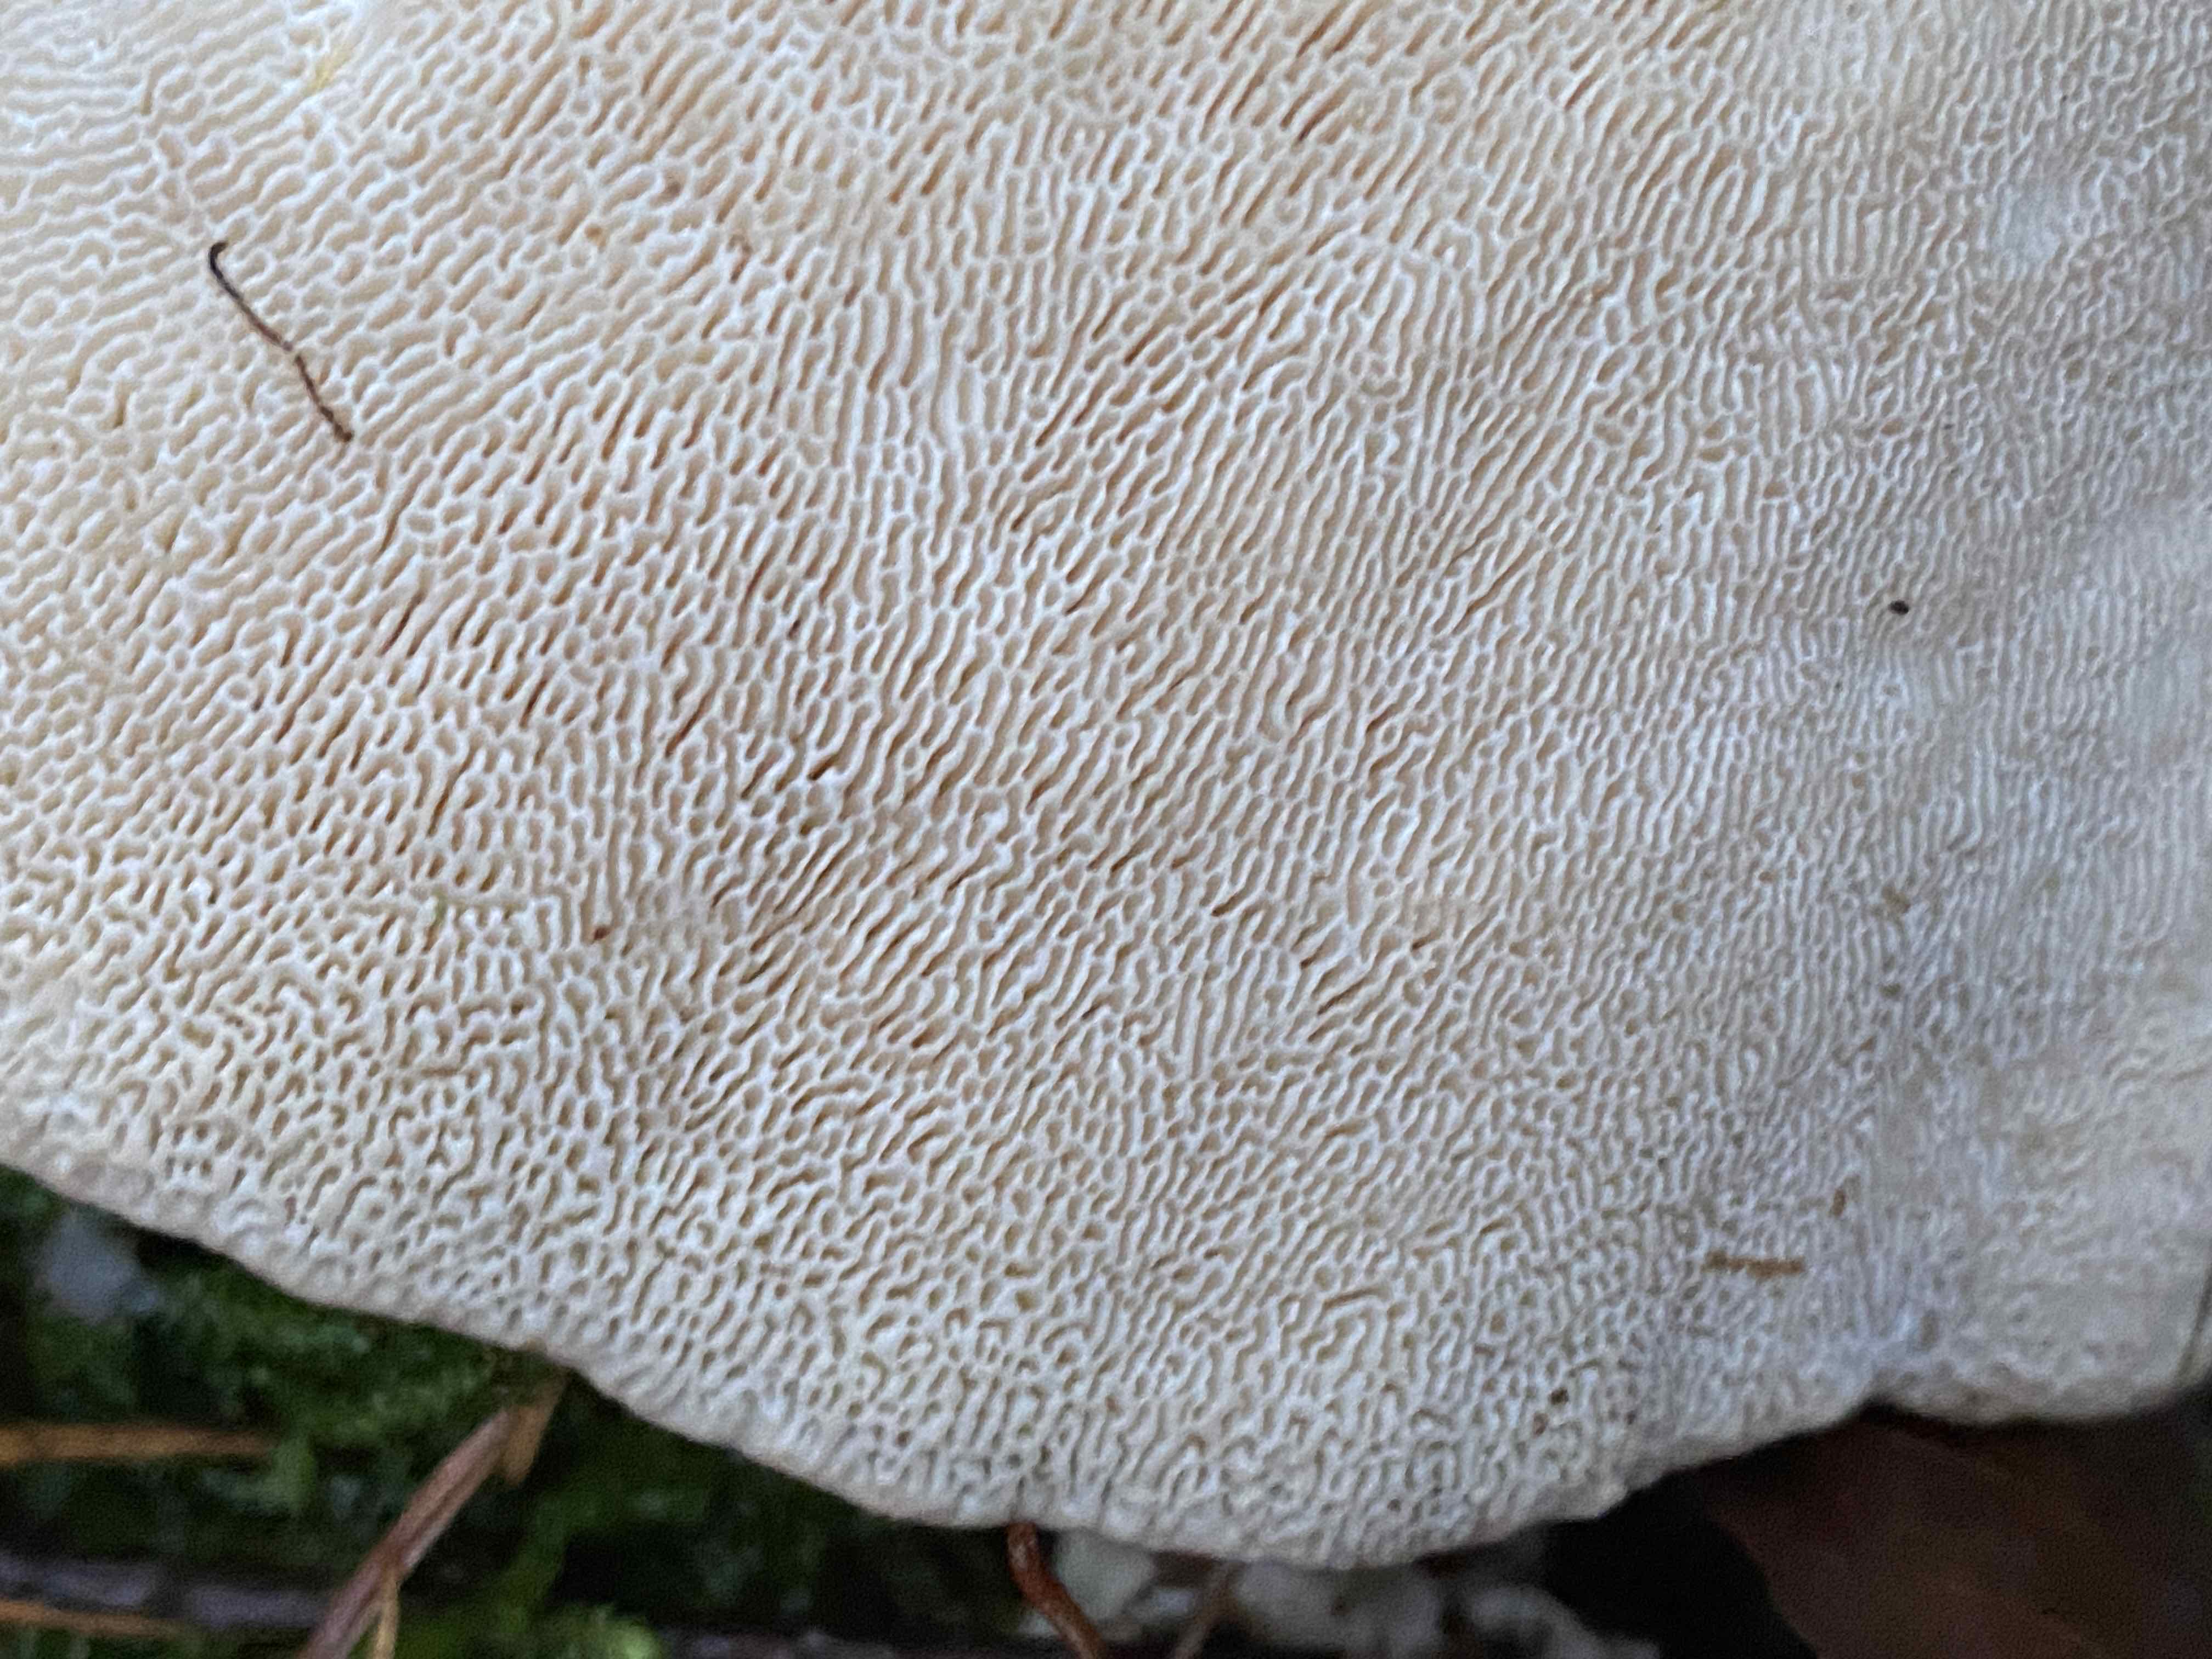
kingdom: Fungi
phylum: Basidiomycota
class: Agaricomycetes
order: Polyporales
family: Polyporaceae
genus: Trametes
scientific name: Trametes gibbosa
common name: puklet læderporesvamp
